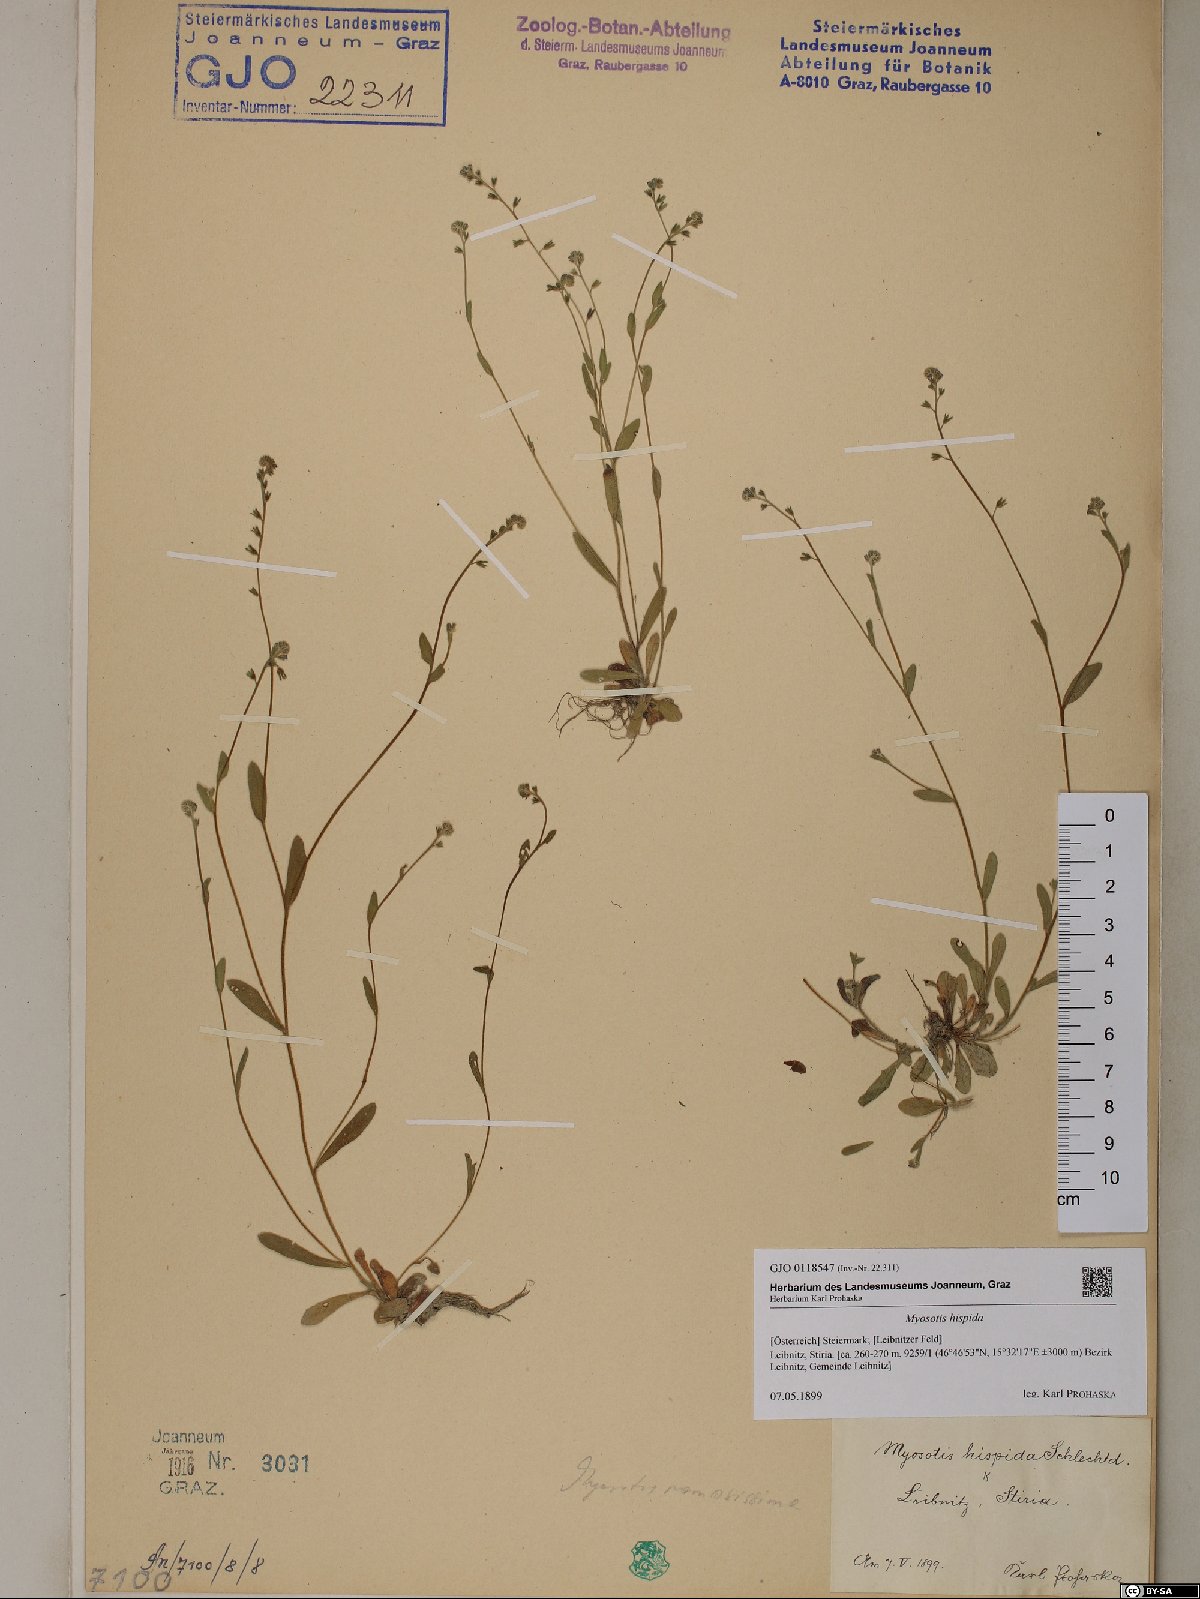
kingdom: Plantae
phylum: Tracheophyta
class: Magnoliopsida
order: Boraginales
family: Boraginaceae
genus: Myosotis
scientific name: Myosotis ramosissima
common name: Early forget-me-not
